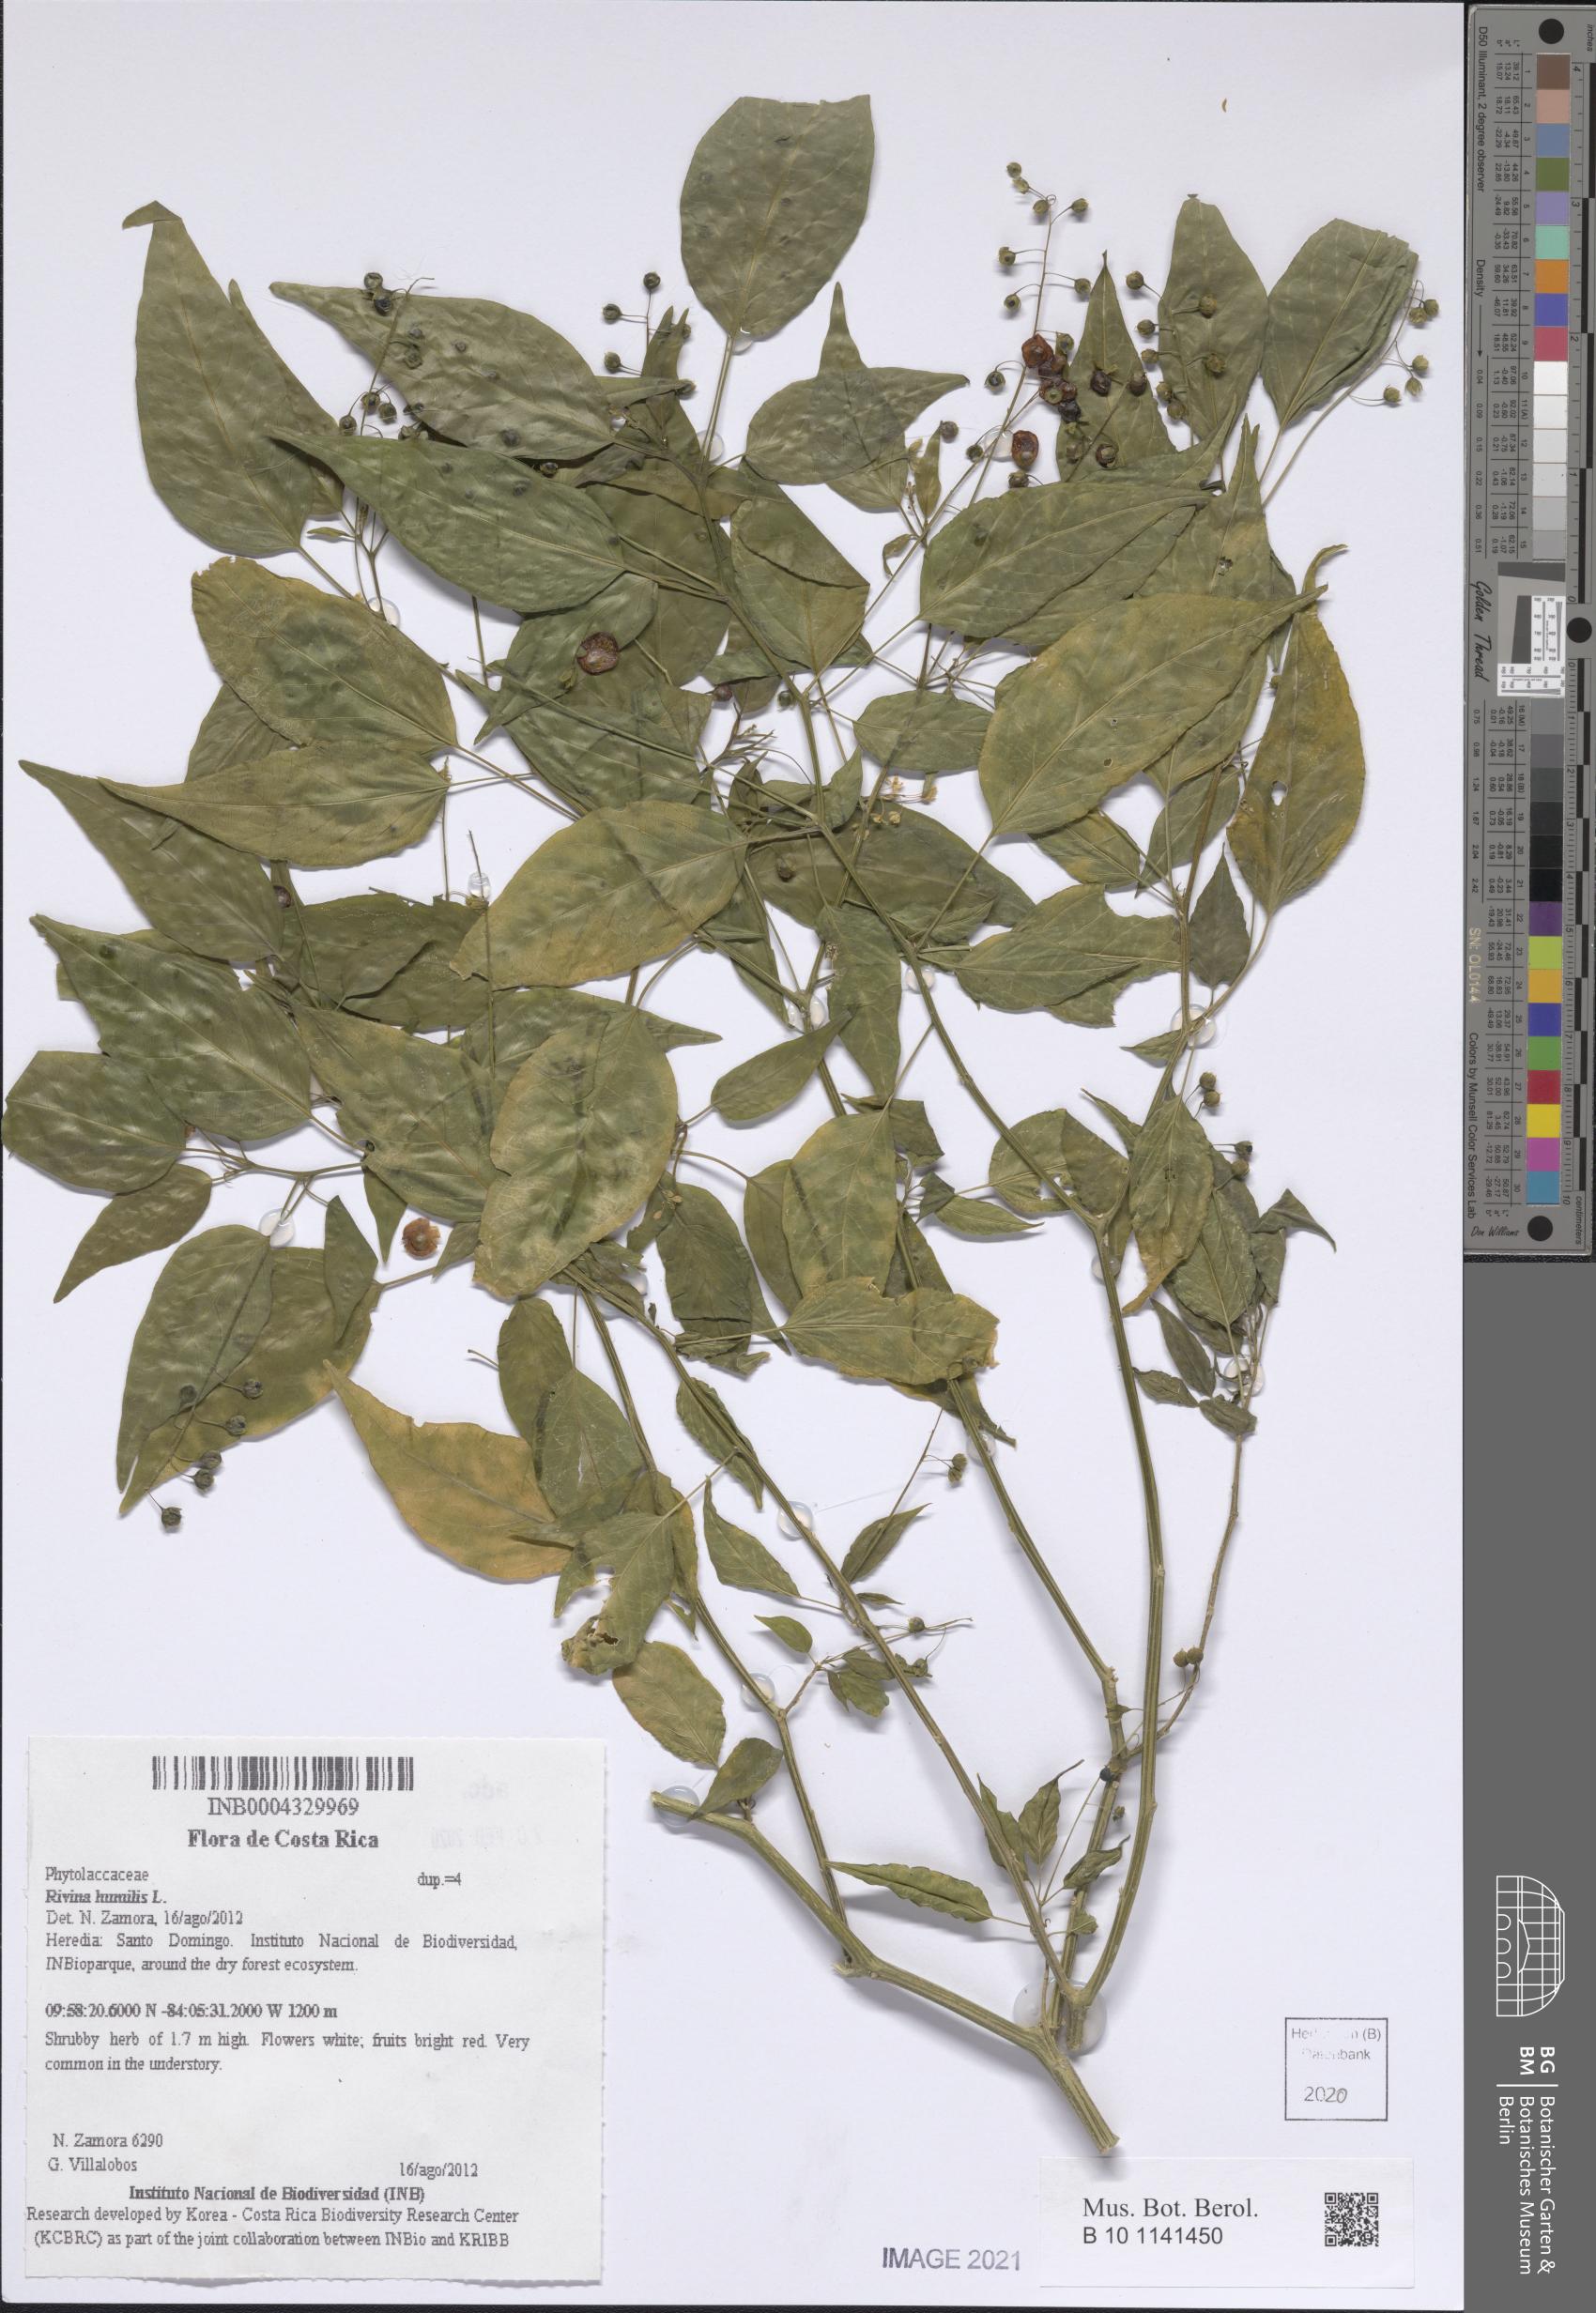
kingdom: Plantae
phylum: Tracheophyta
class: Magnoliopsida
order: Caryophyllales
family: Phytolaccaceae
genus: Rivina
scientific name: Rivina humilis
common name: Rougeplant
